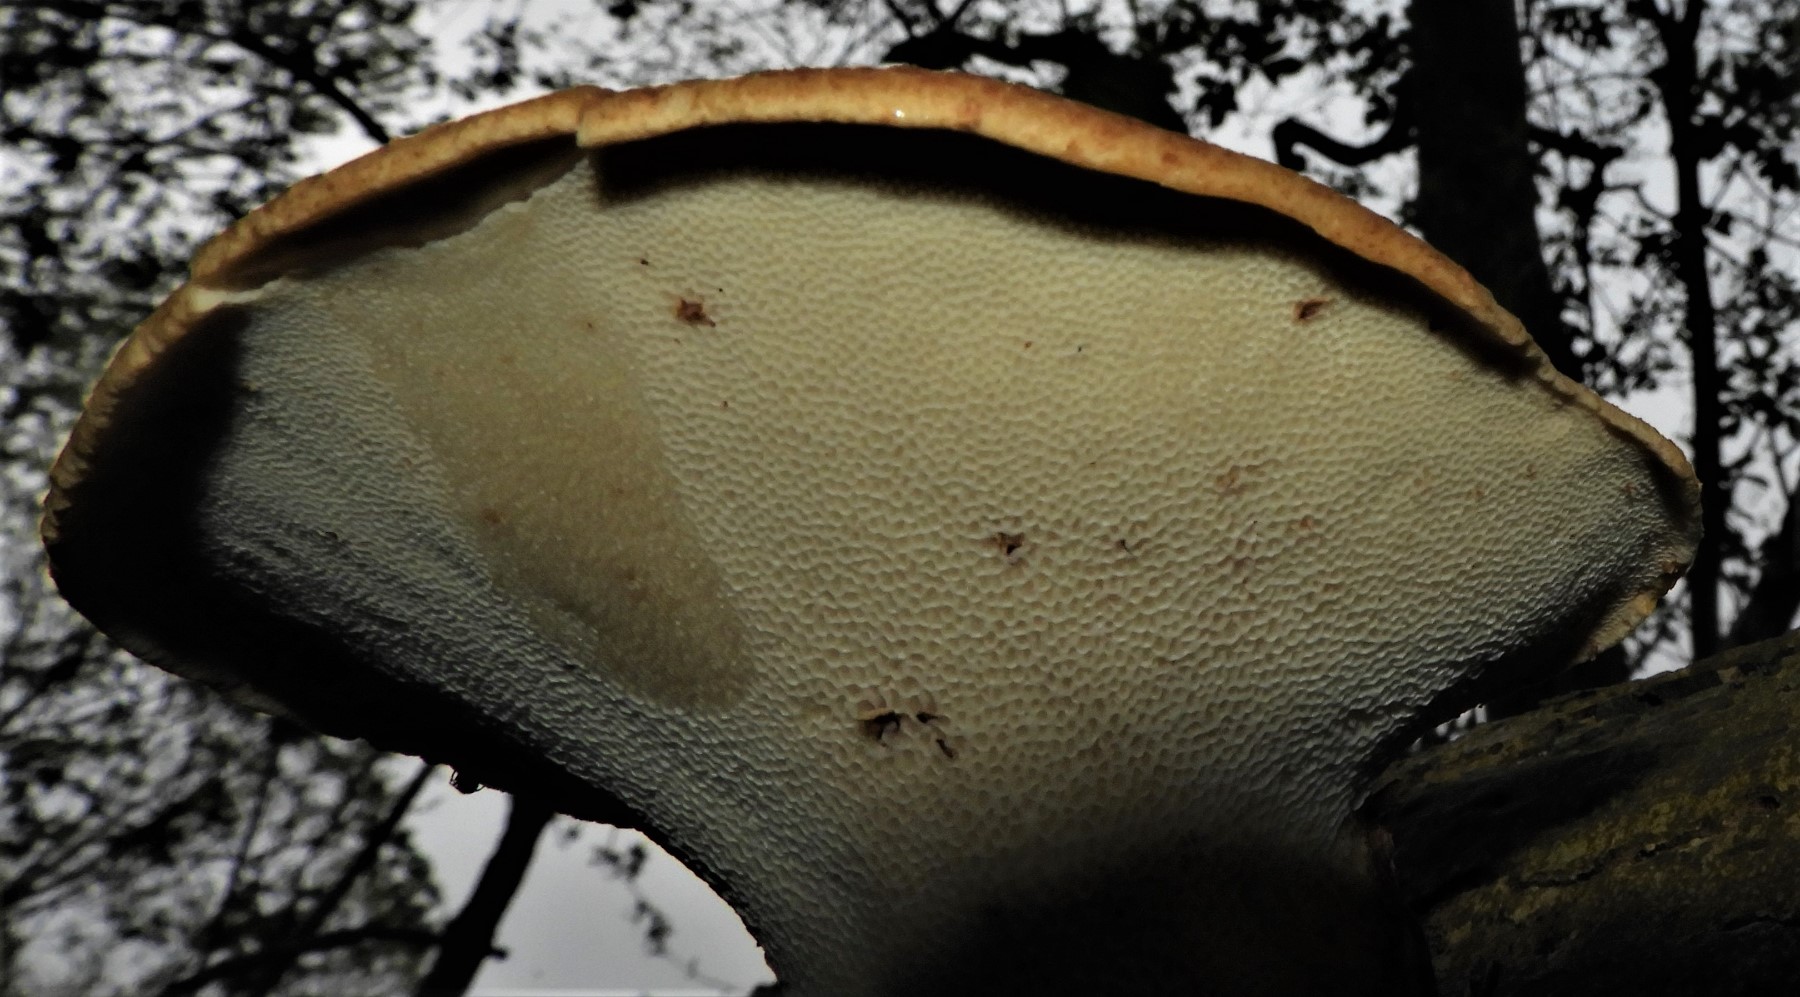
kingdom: Fungi
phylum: Basidiomycota
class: Agaricomycetes
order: Polyporales
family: Polyporaceae
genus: Cerioporus
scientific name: Cerioporus squamosus
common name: skællet stilkporesvamp
